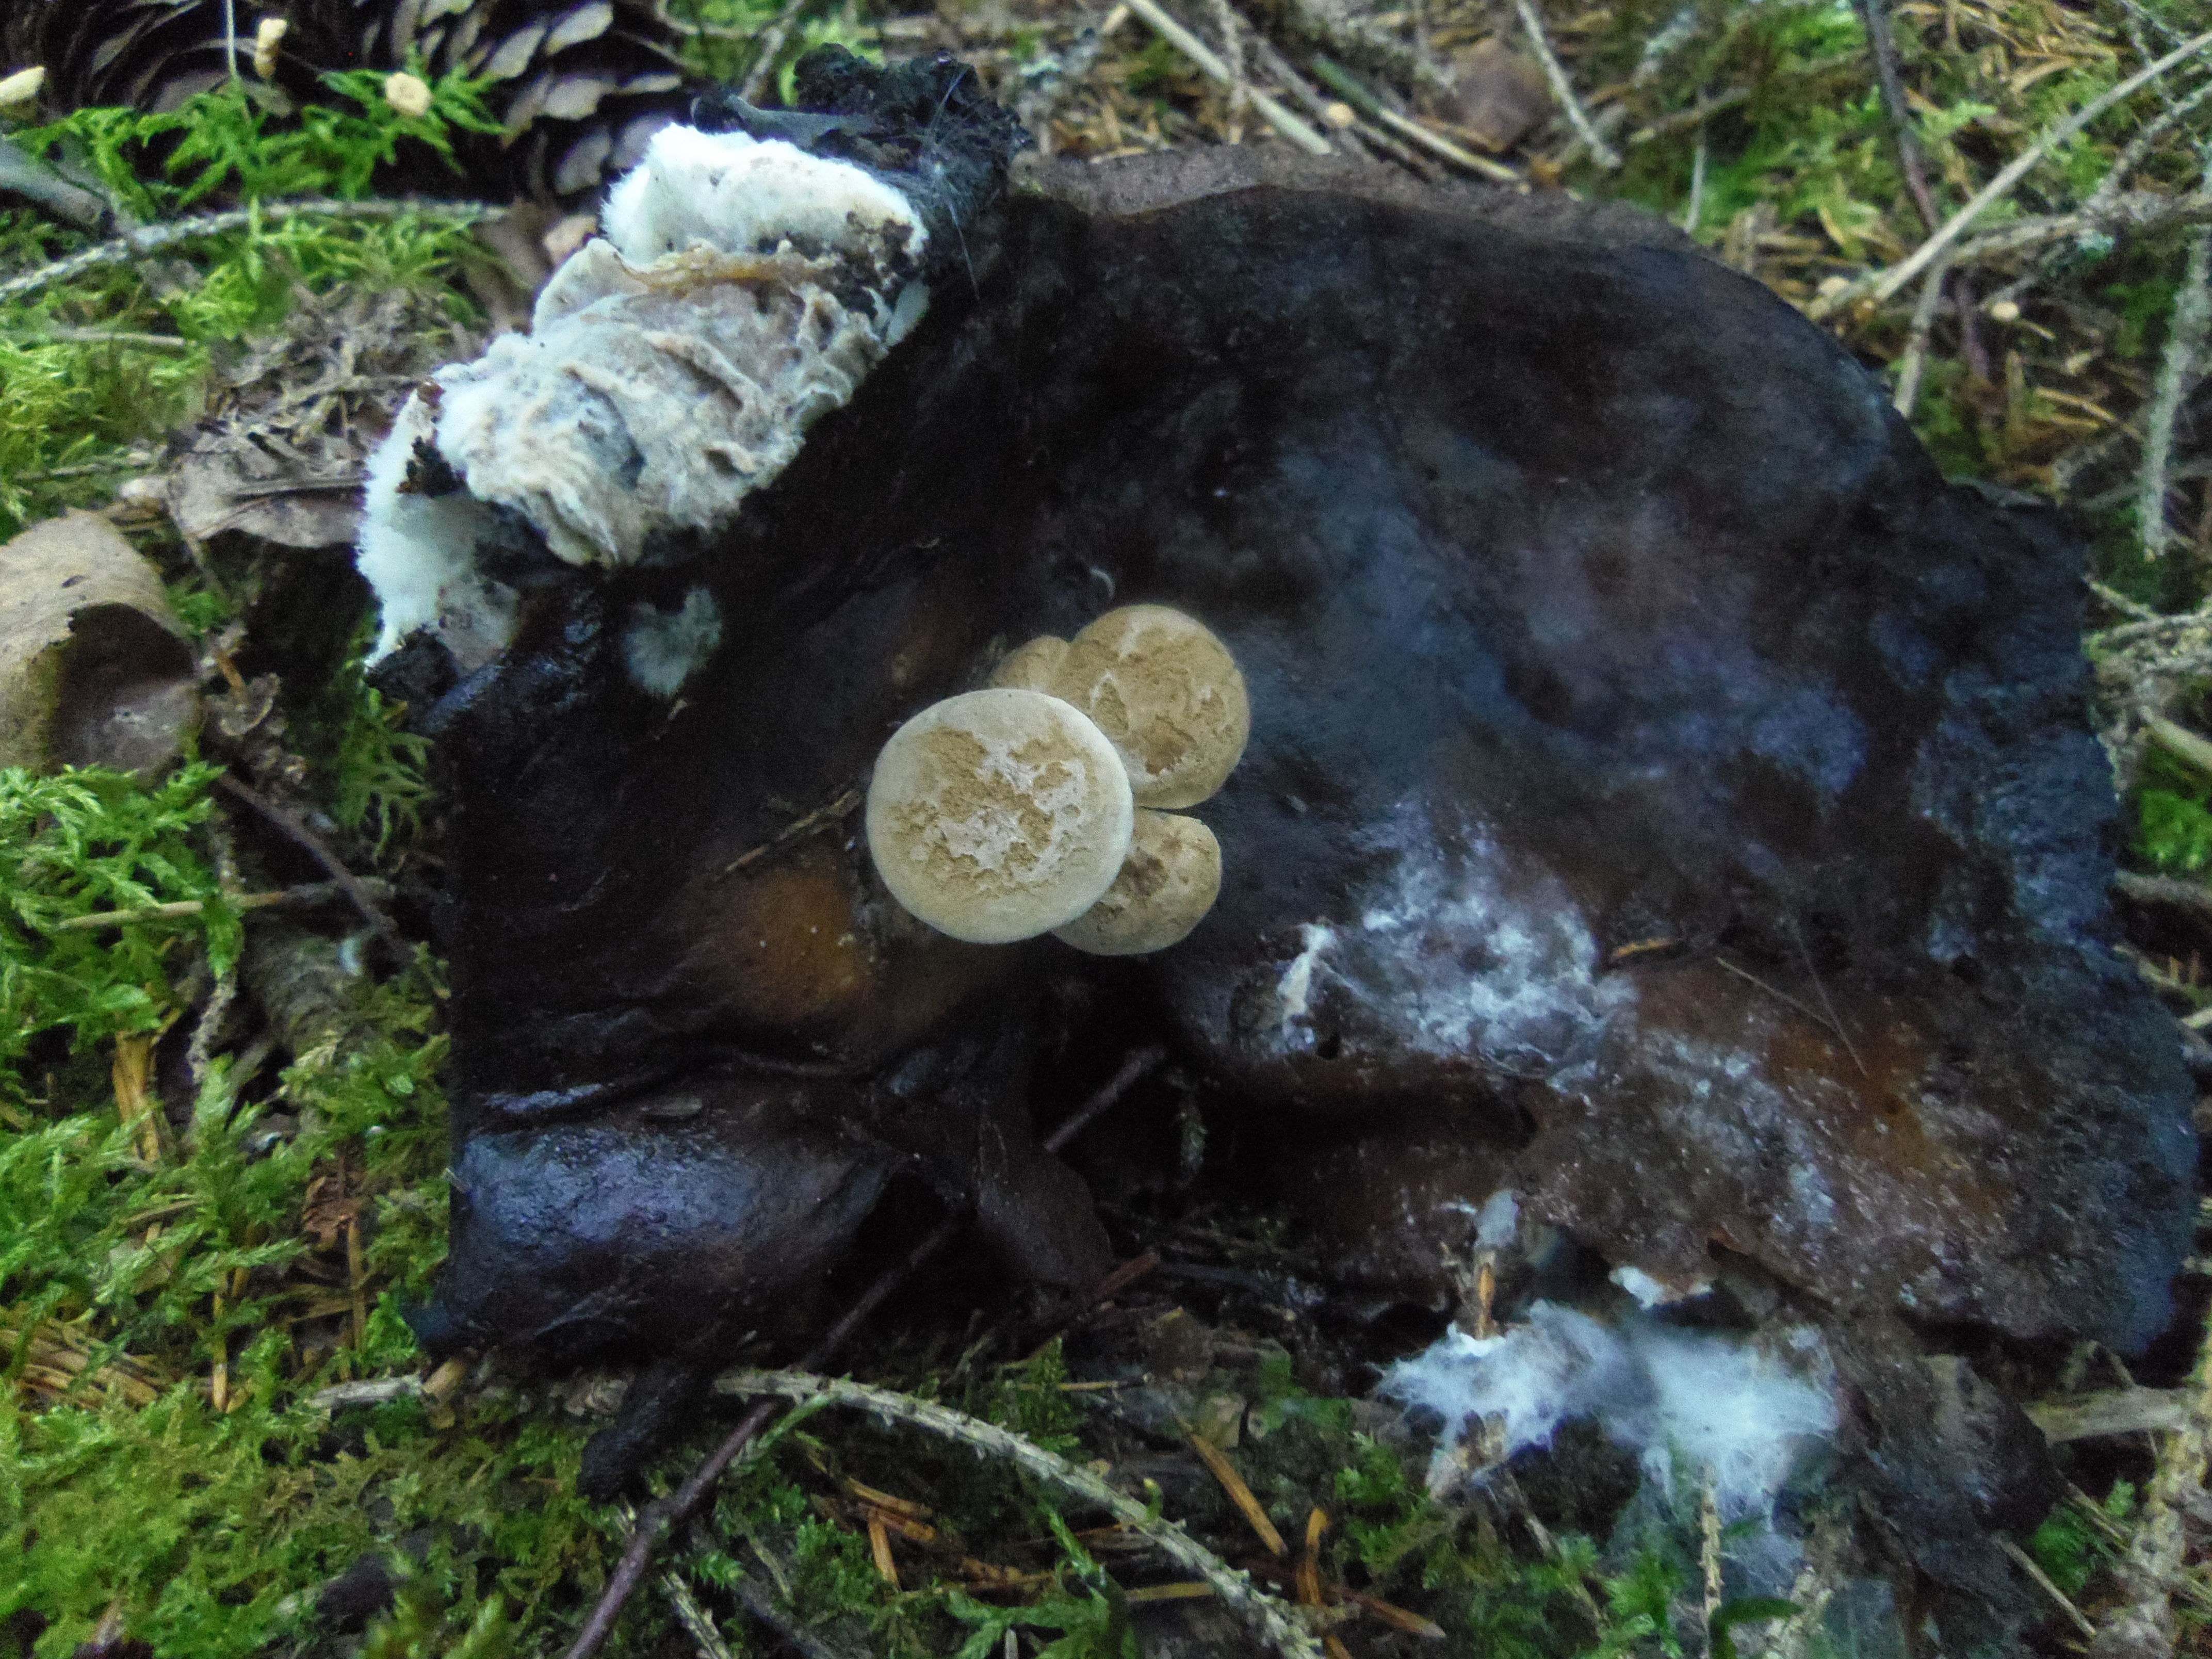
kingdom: Fungi
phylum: Basidiomycota
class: Agaricomycetes
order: Agaricales
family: Lyophyllaceae
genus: Asterophora
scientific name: Asterophora lycoperdoides
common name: Pick-a-back toadstool
